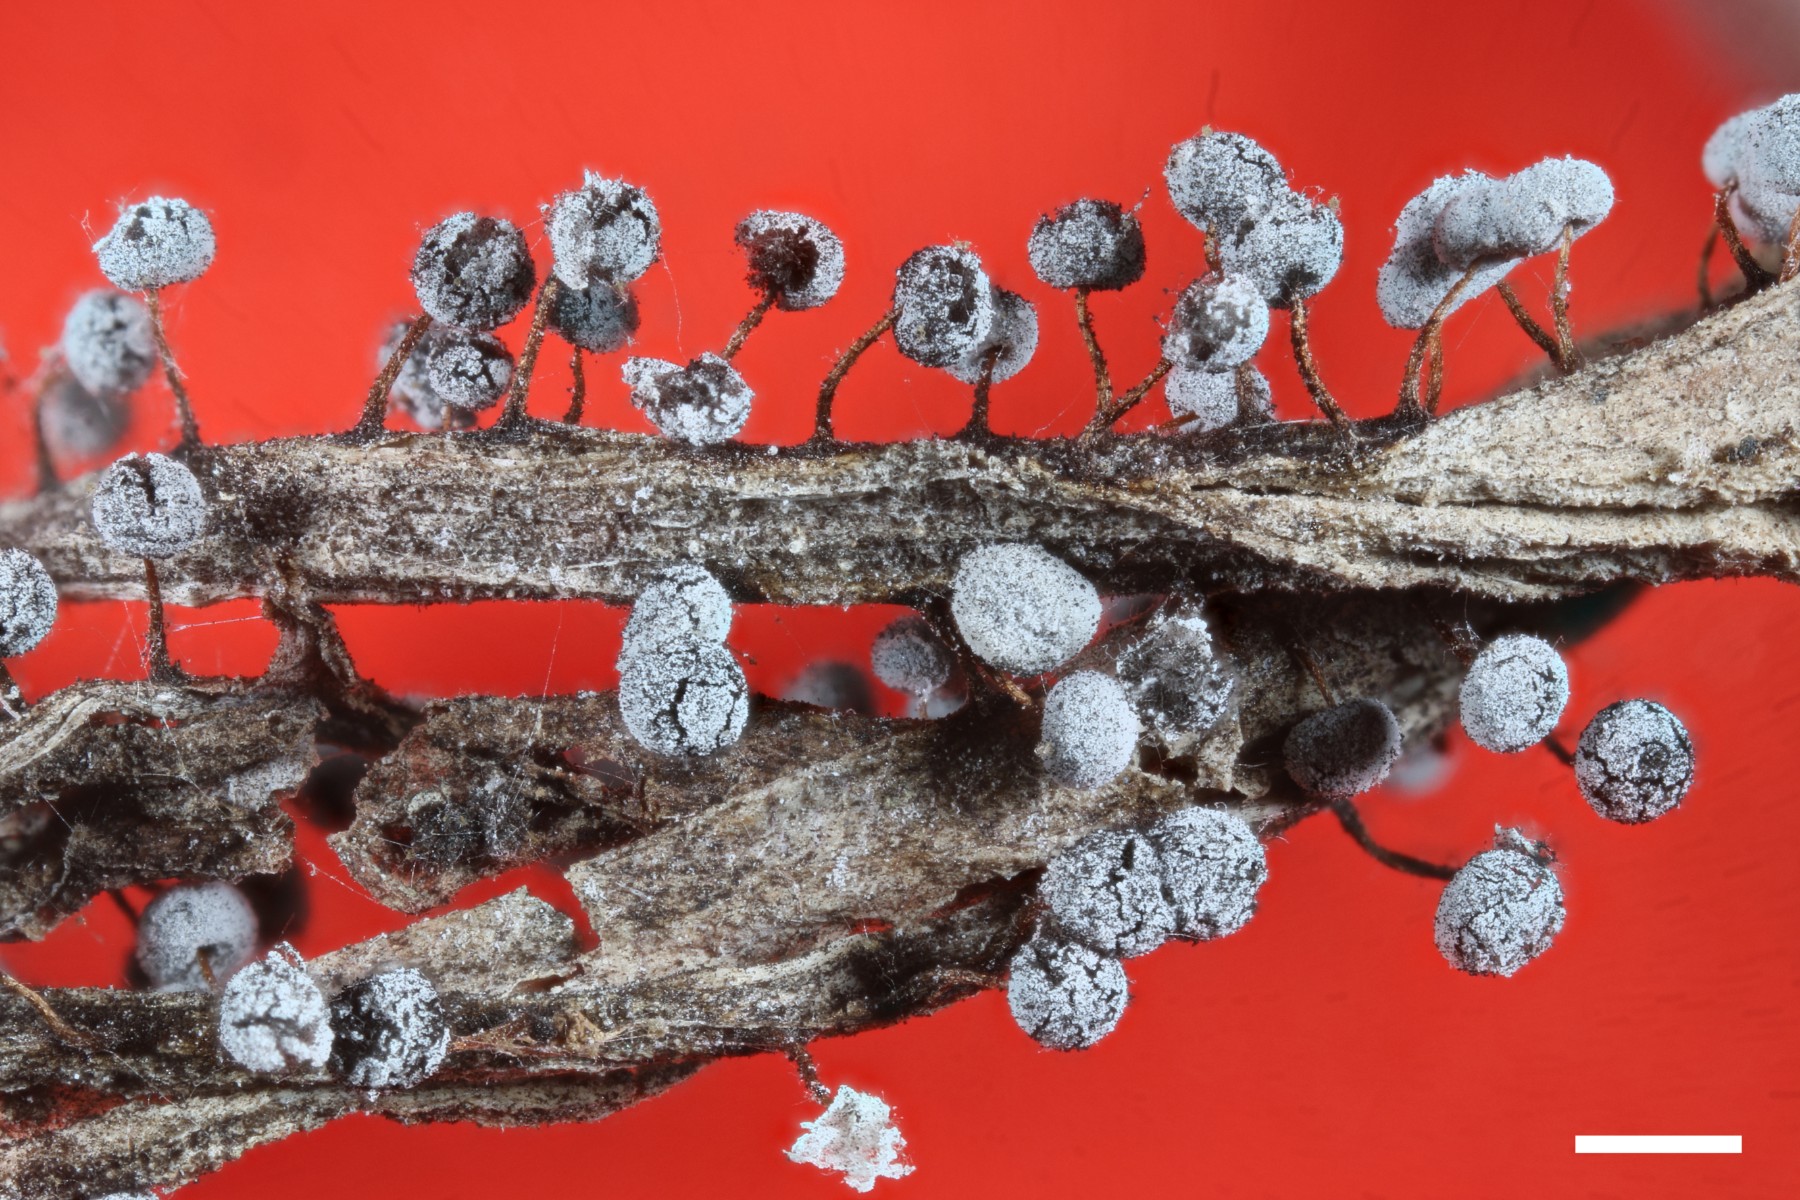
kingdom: Protozoa
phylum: Mycetozoa
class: Myxomycetes
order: Physarales
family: Didymiaceae
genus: Didymium
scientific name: Didymium bahiense
